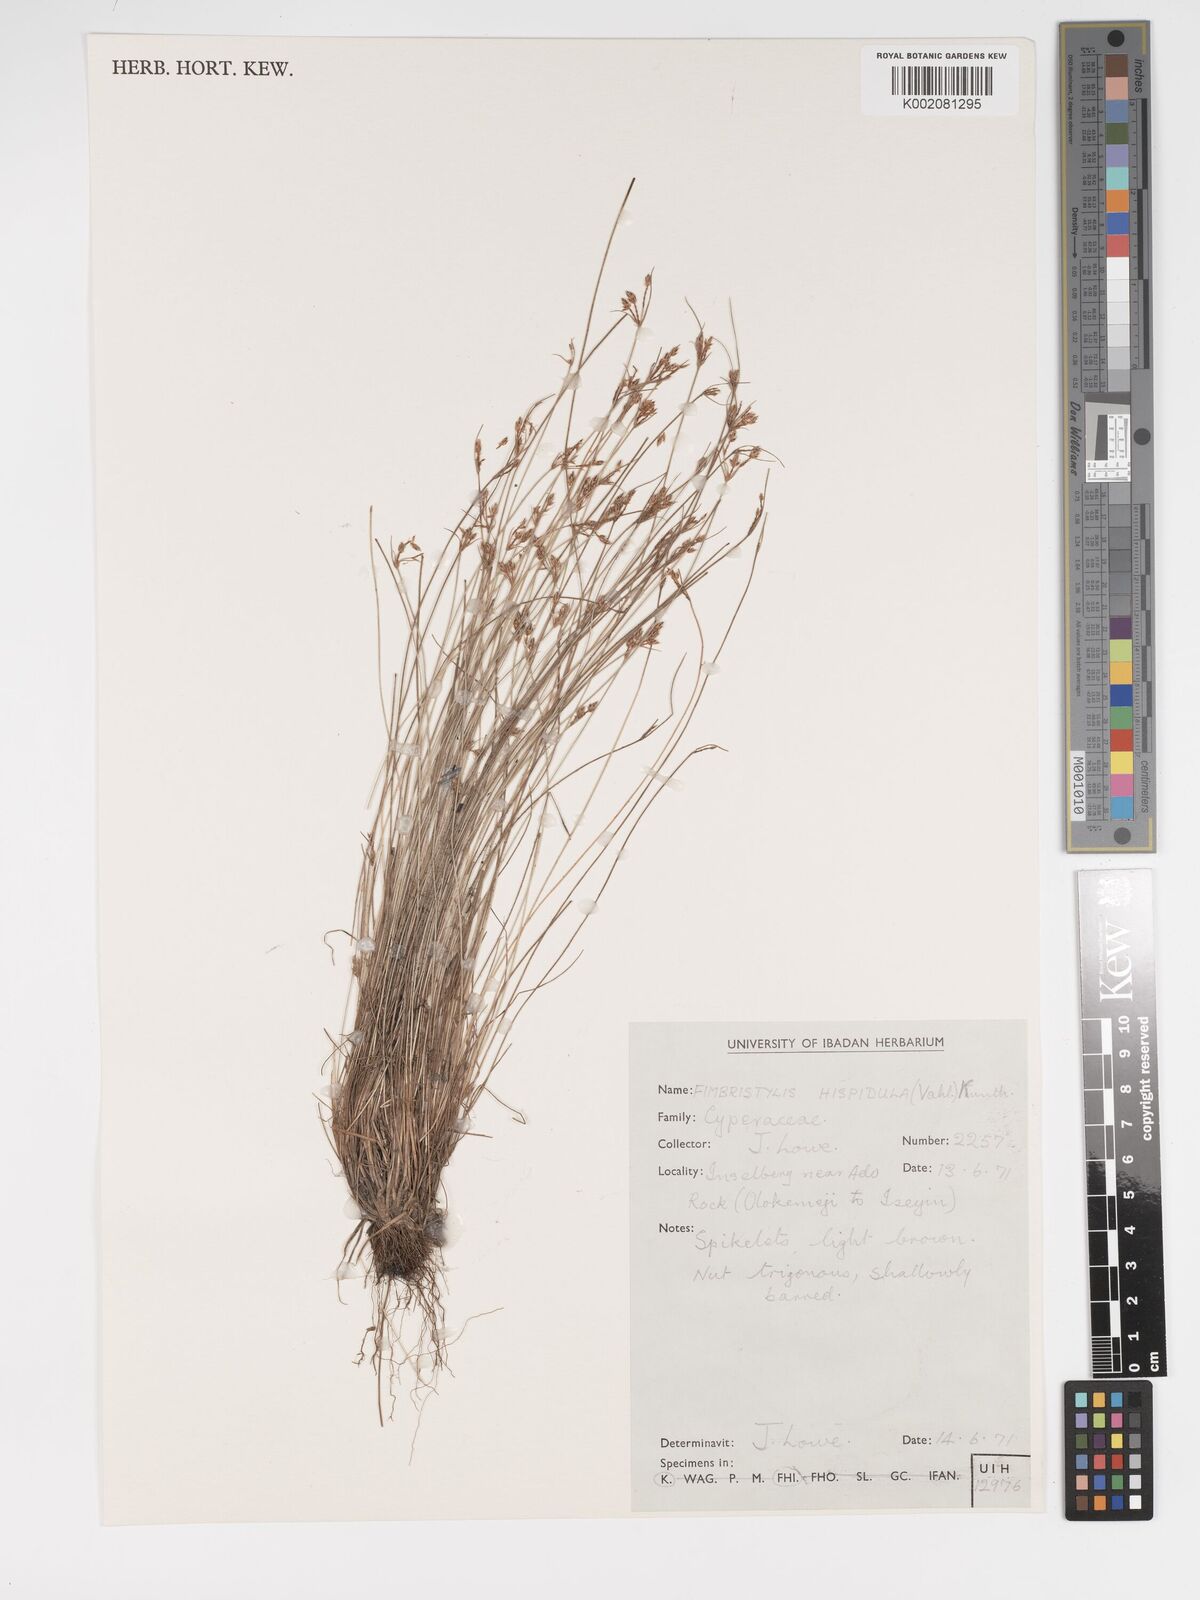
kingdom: Plantae
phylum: Tracheophyta
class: Liliopsida
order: Poales
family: Cyperaceae
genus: Bulbostylis
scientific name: Bulbostylis hispidula
